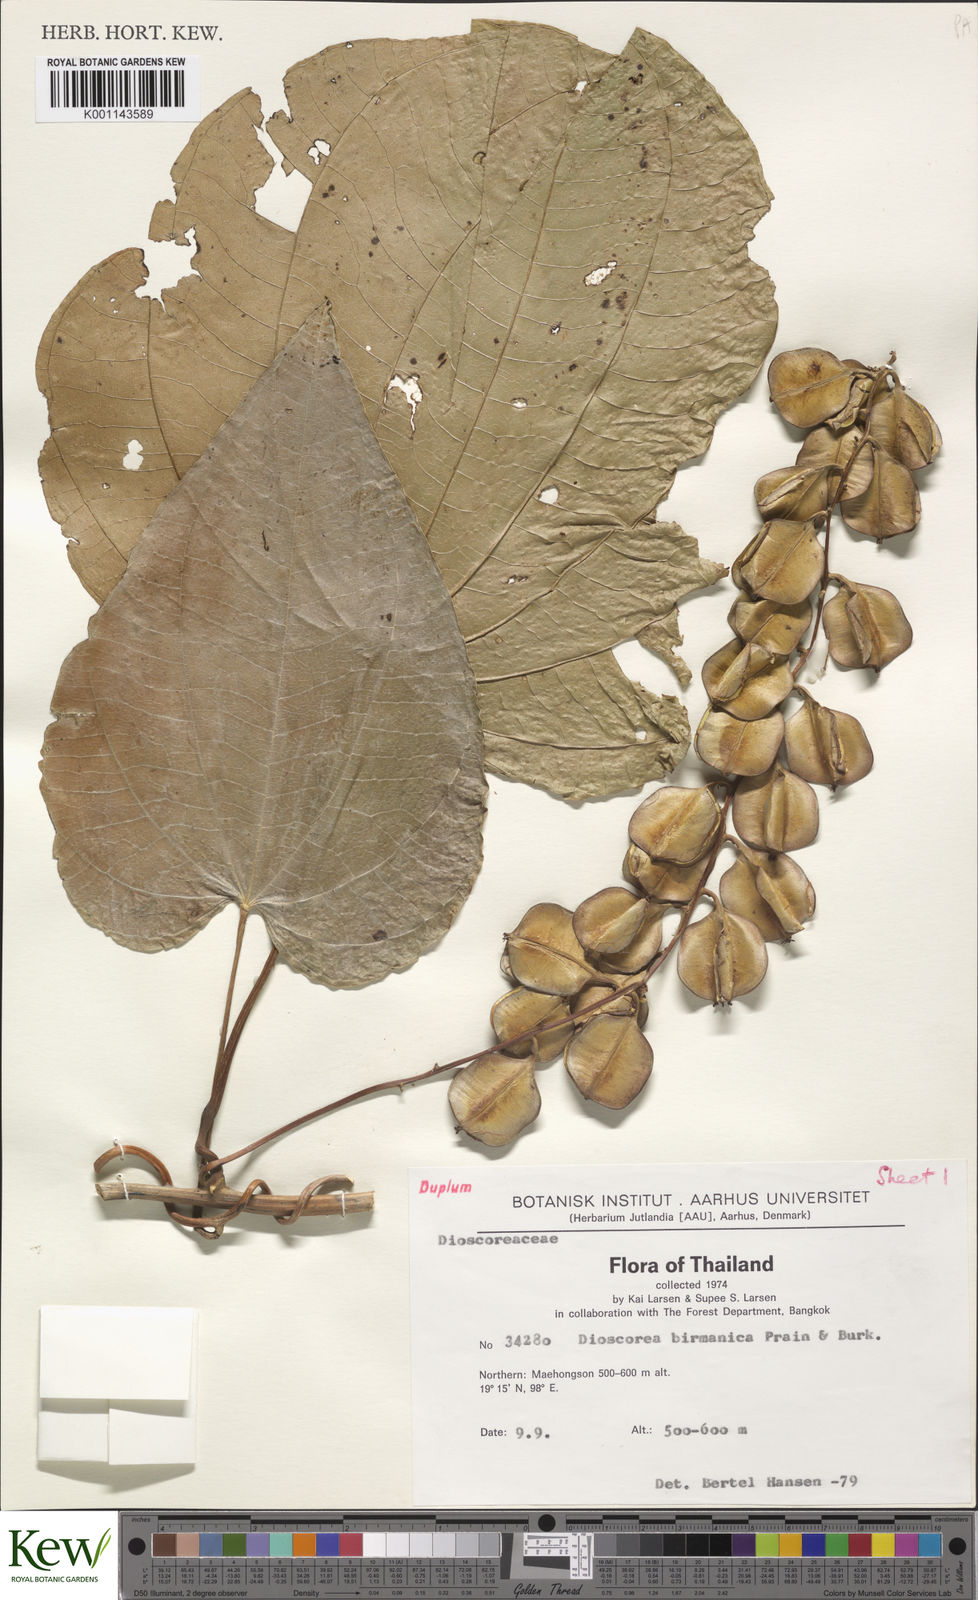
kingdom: Plantae
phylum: Tracheophyta
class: Liliopsida
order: Dioscoreales
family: Dioscoreaceae
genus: Dioscorea
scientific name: Dioscorea birmanica
